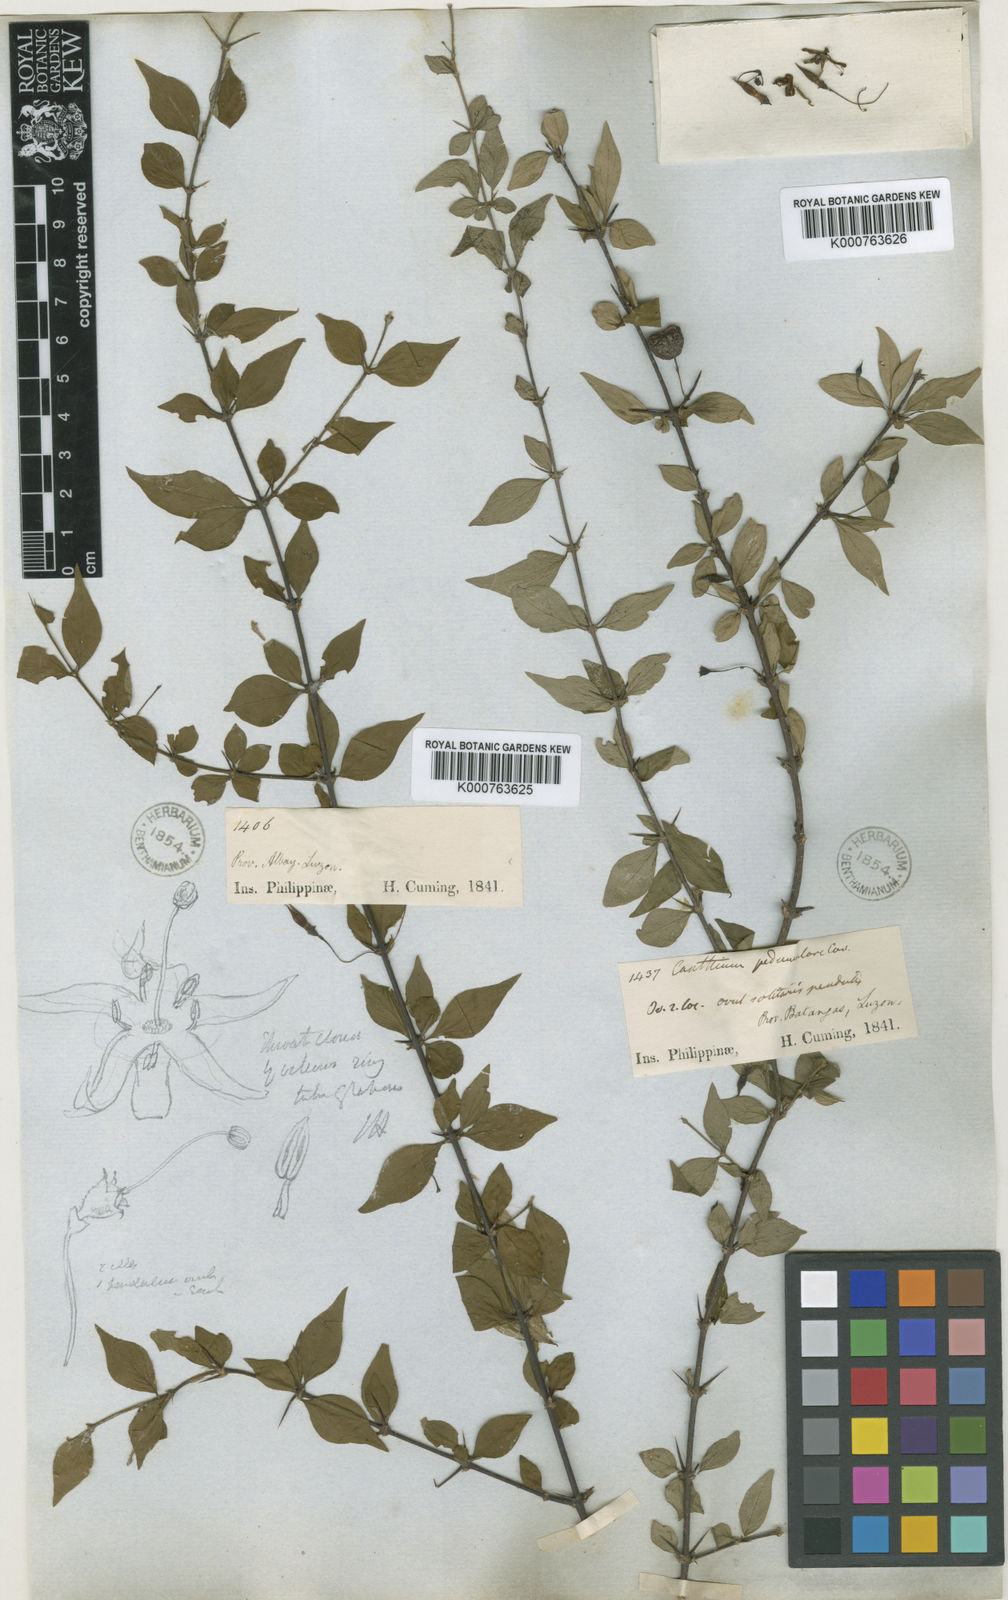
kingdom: Plantae
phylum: Tracheophyta
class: Magnoliopsida
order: Gentianales
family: Rubiaceae
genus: Canthium
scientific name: Canthium pedunculare
